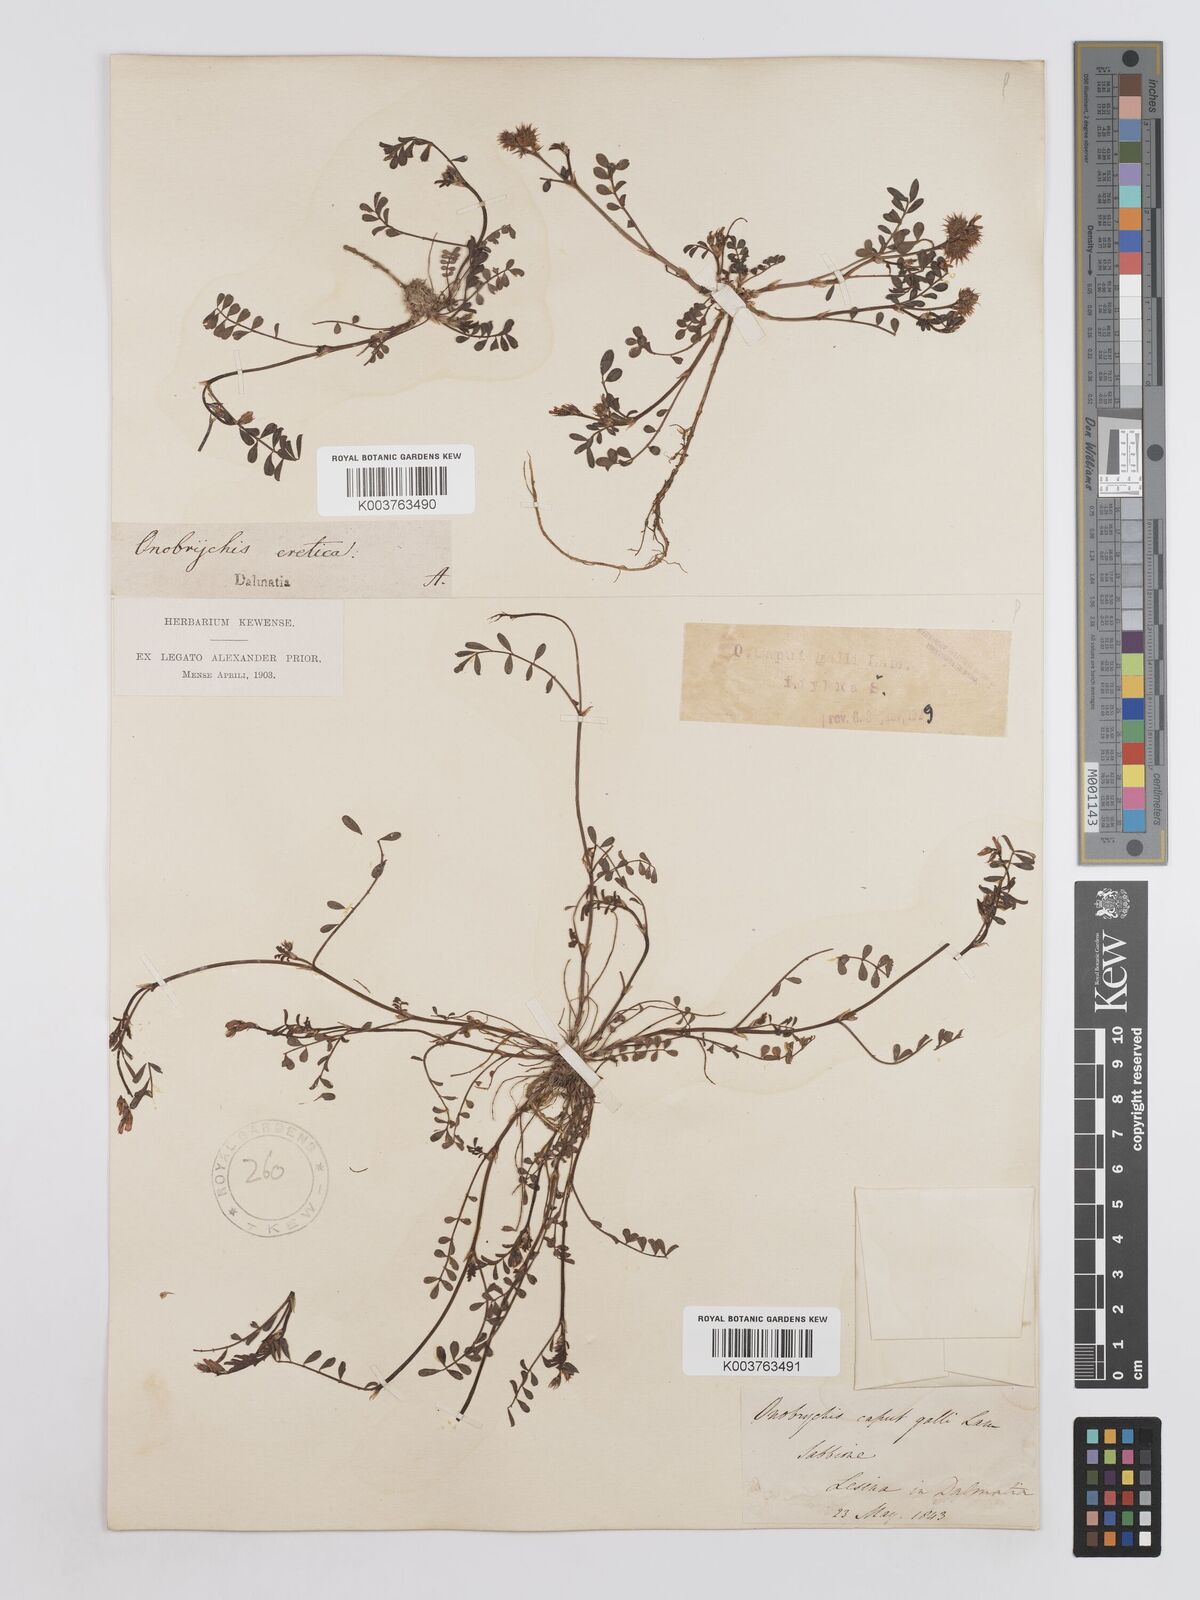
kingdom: Plantae
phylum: Tracheophyta
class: Magnoliopsida
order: Fabales
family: Fabaceae
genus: Onobrychis
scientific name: Onobrychis caput-galli
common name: Cockscomb sainfoin
